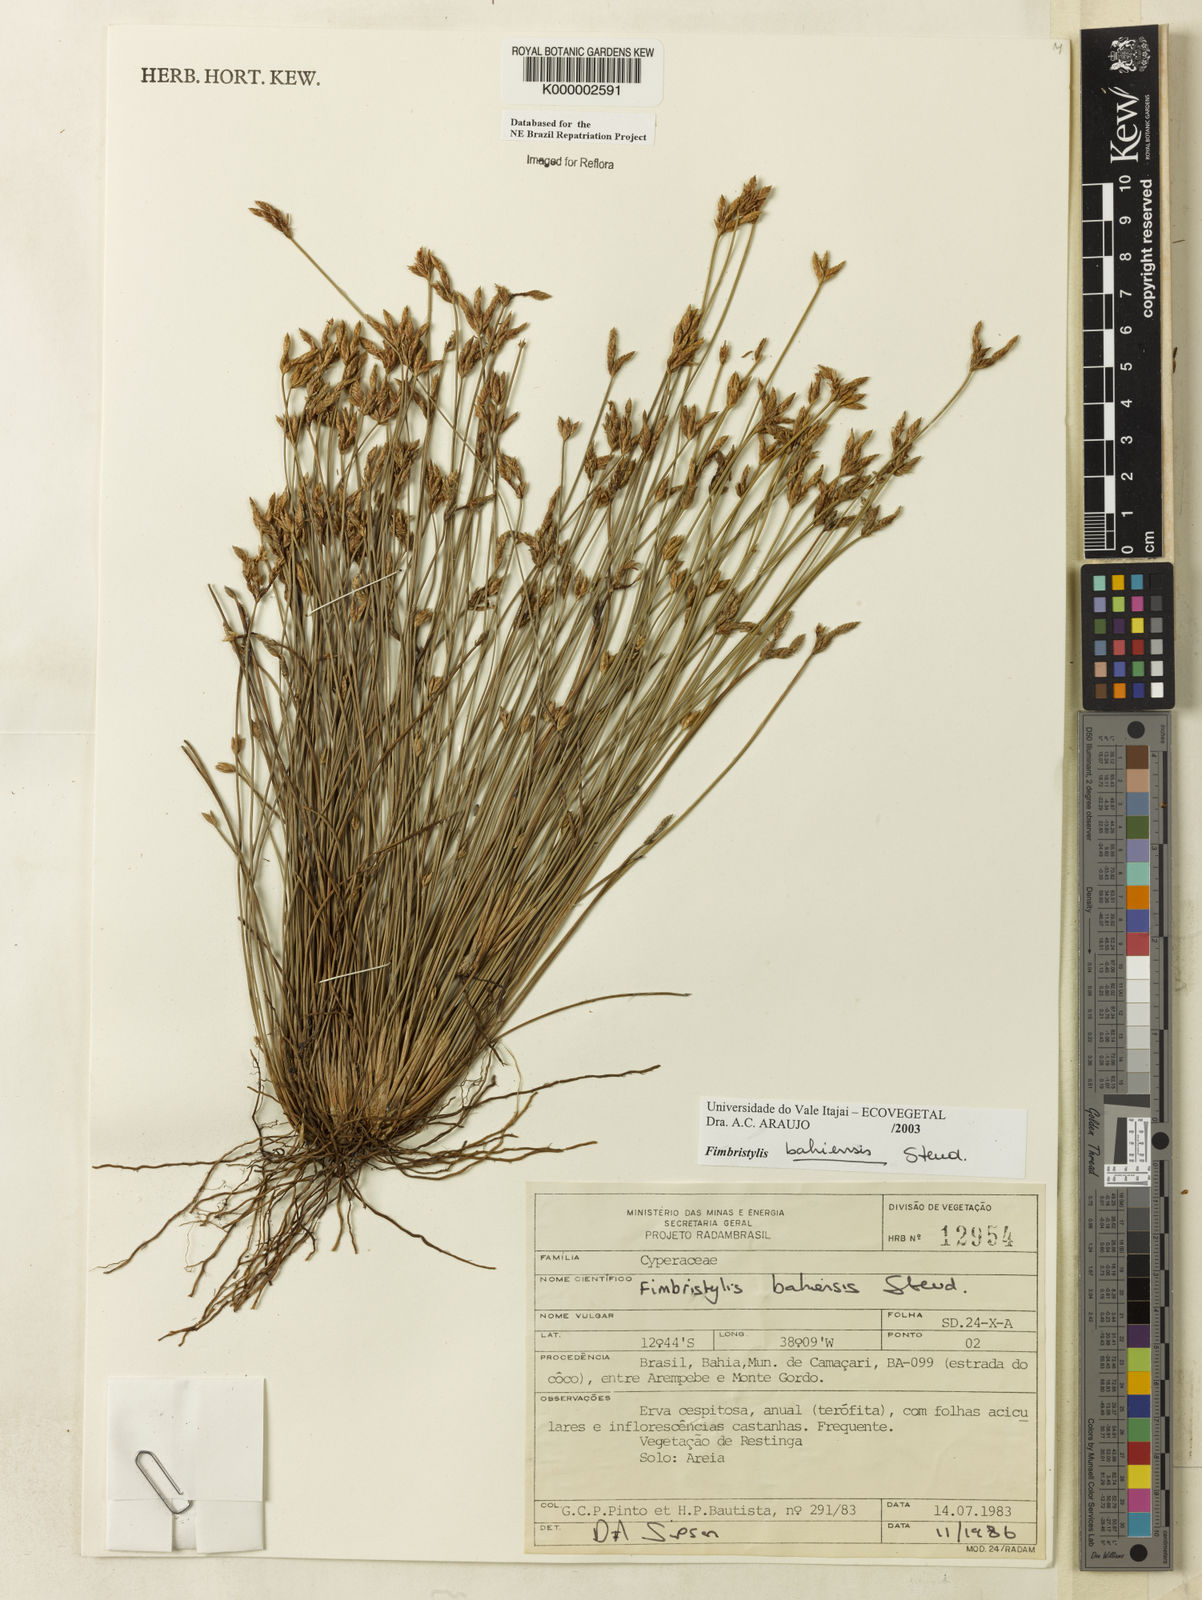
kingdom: Plantae
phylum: Tracheophyta
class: Liliopsida
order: Poales
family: Cyperaceae
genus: Fimbristylis
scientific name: Fimbristylis bahiensis
